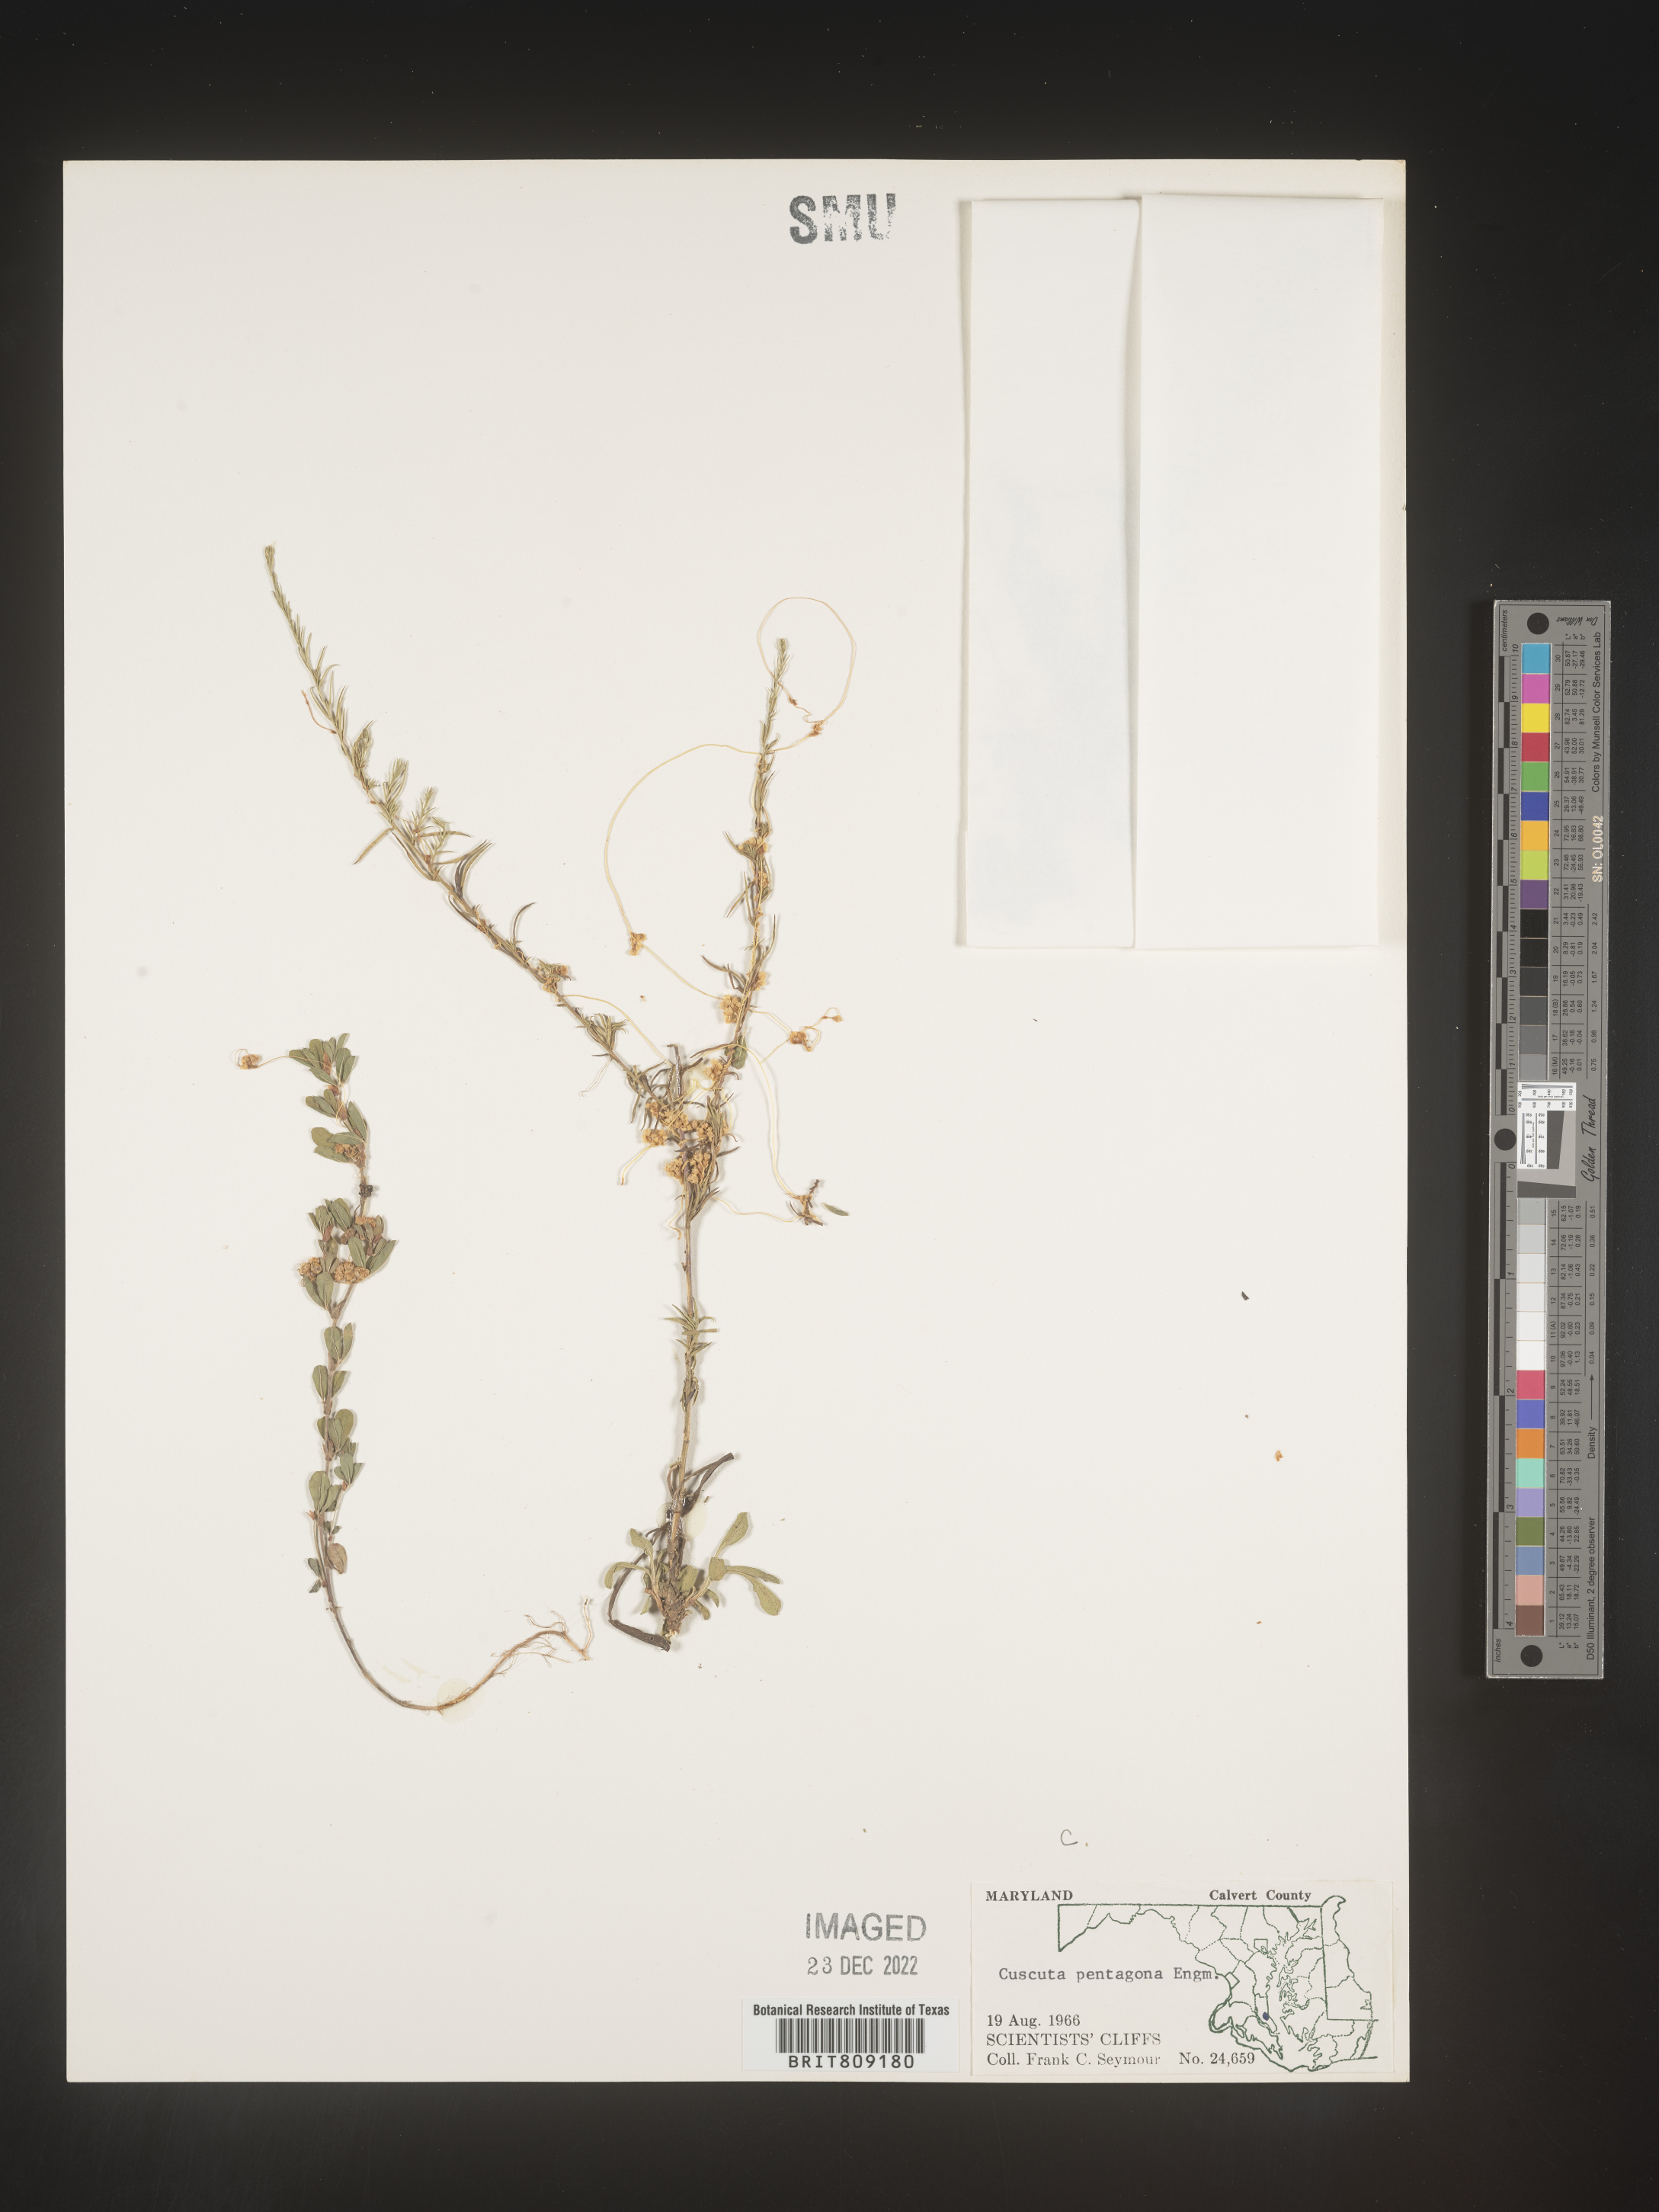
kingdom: Plantae
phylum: Tracheophyta
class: Magnoliopsida
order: Solanales
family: Convolvulaceae
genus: Cuscuta
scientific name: Cuscuta campestris
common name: Yellow dodder
